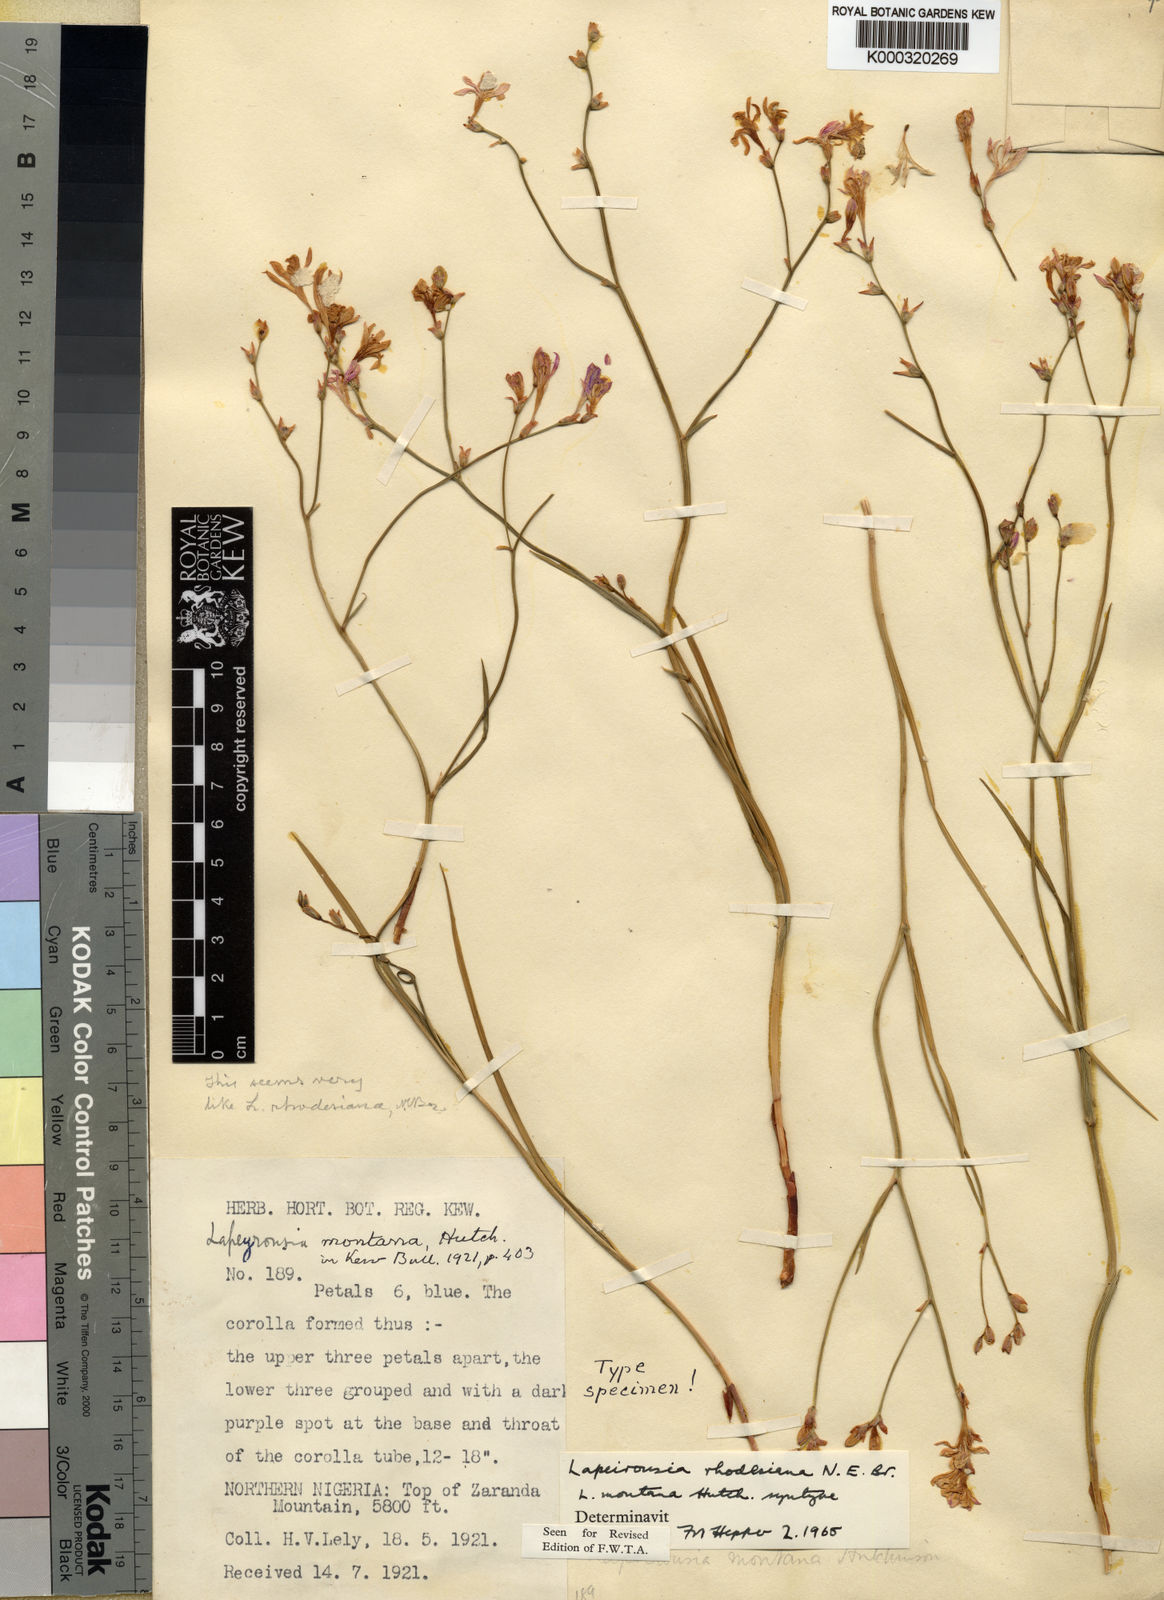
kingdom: Plantae
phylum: Tracheophyta
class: Liliopsida
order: Asparagales
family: Iridaceae
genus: Afrosolen
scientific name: Afrosolen erythranthus
